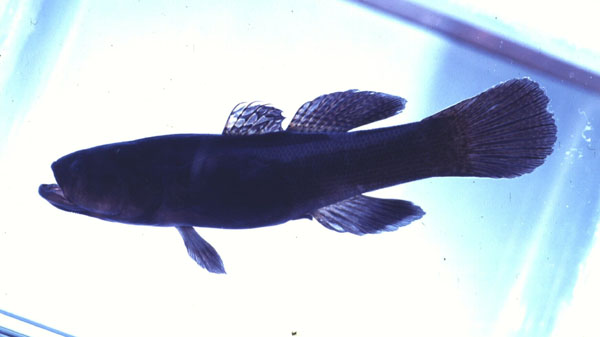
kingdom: Animalia
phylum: Chordata
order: Perciformes
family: Eleotridae
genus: Eleotris
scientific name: Eleotris melanosoma
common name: Broadhead sleeper
